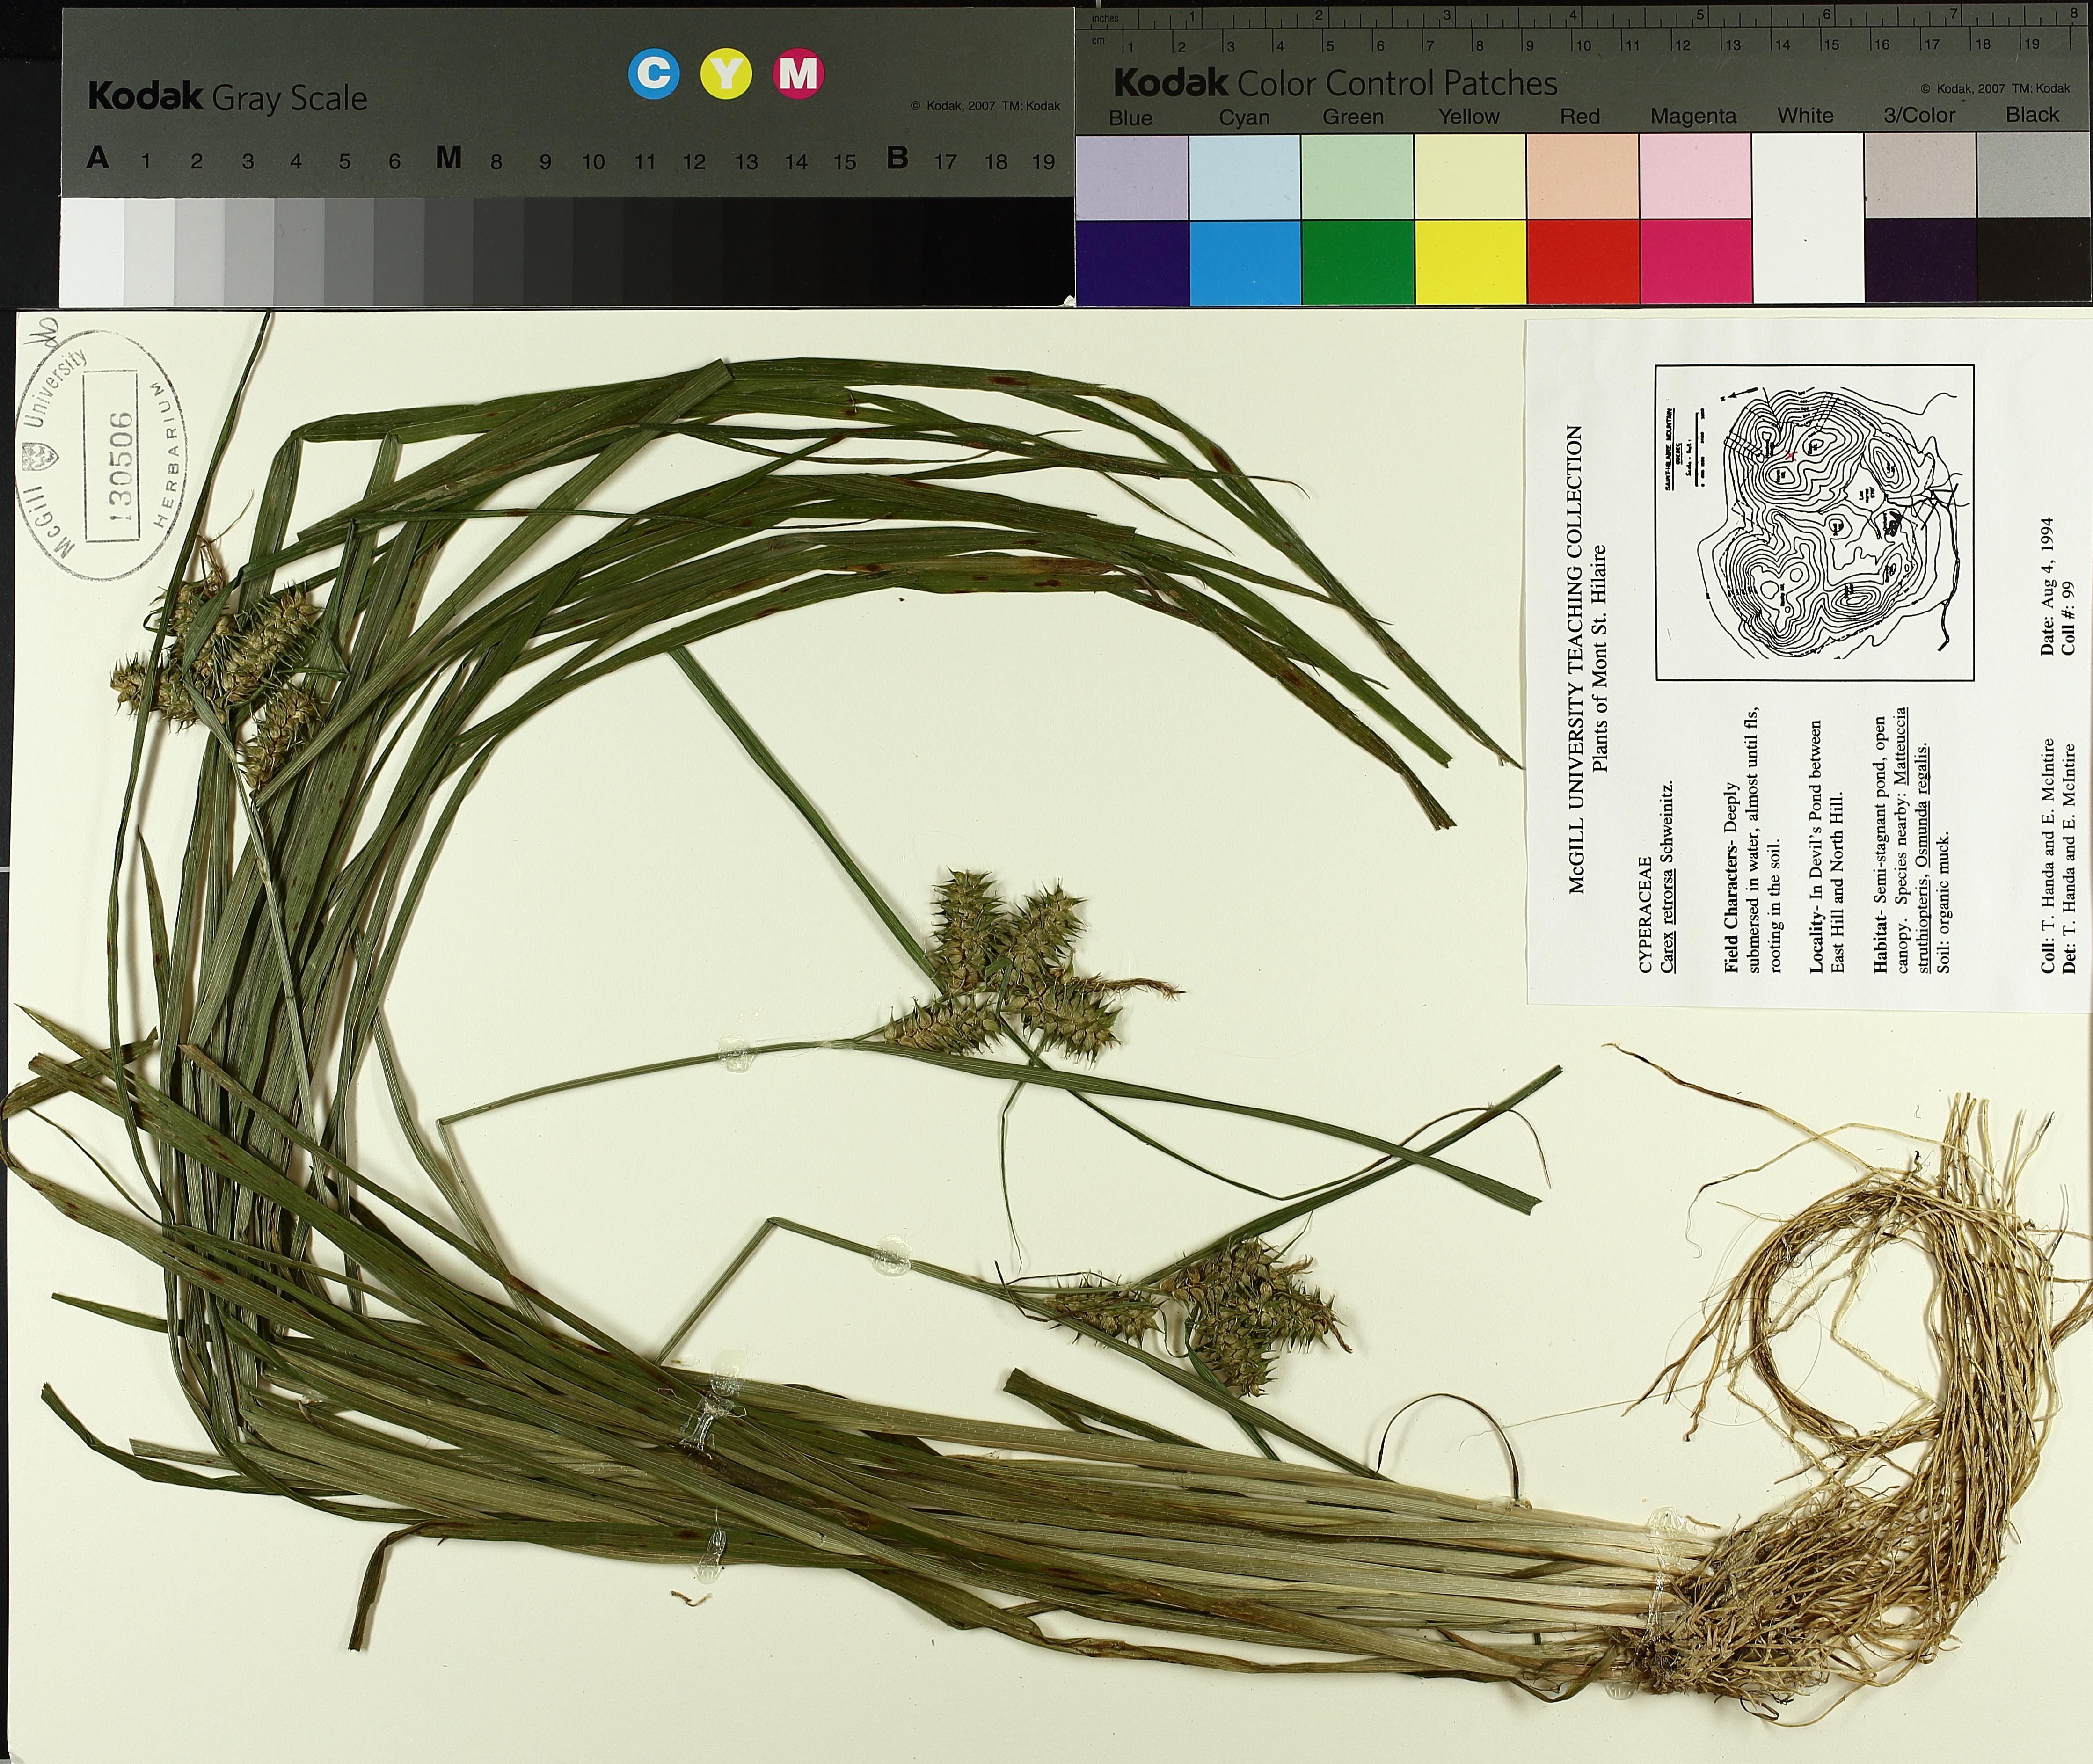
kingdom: Plantae
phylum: Tracheophyta
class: Liliopsida
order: Poales
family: Cyperaceae
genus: Carex
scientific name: Carex retrorsa
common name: Knot-sheath sedge
